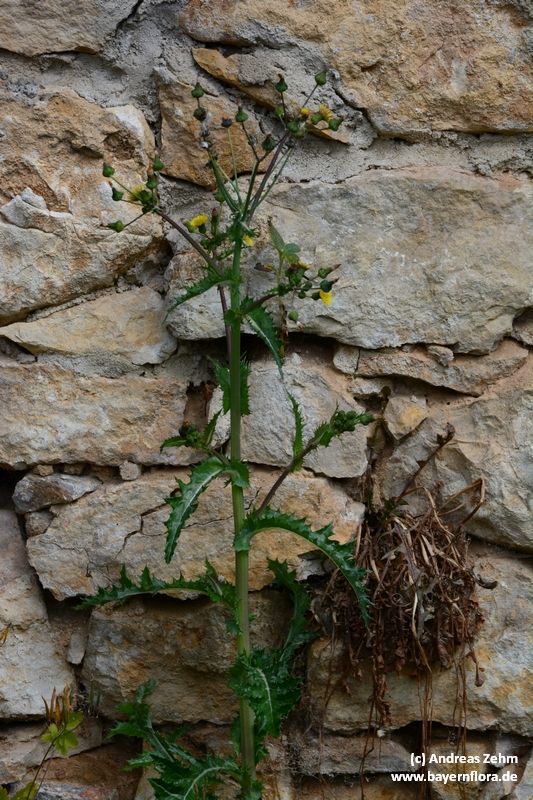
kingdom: Plantae
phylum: Tracheophyta
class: Magnoliopsida
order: Asterales
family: Asteraceae
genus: Sonchus
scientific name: Sonchus asper
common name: Prickly sow-thistle
